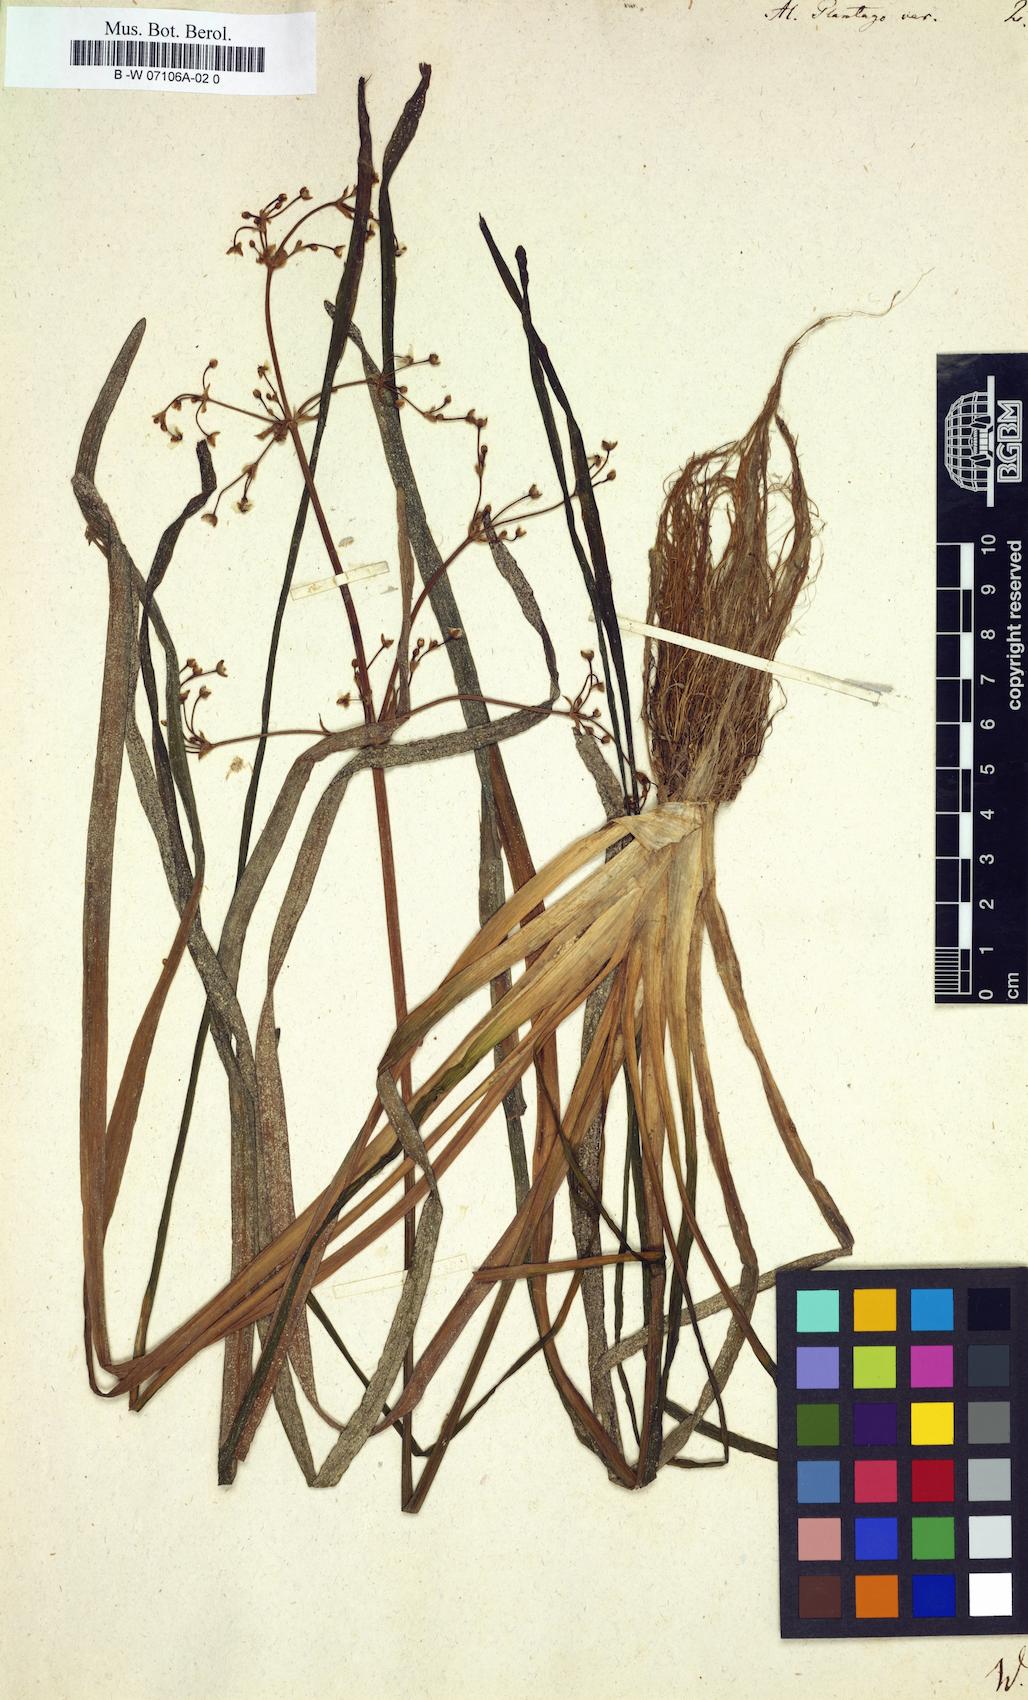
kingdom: Plantae
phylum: Tracheophyta
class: Liliopsida
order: Alismatales
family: Alismataceae
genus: Alisma
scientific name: Alisma plantago-aquatica
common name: Water-plantain
